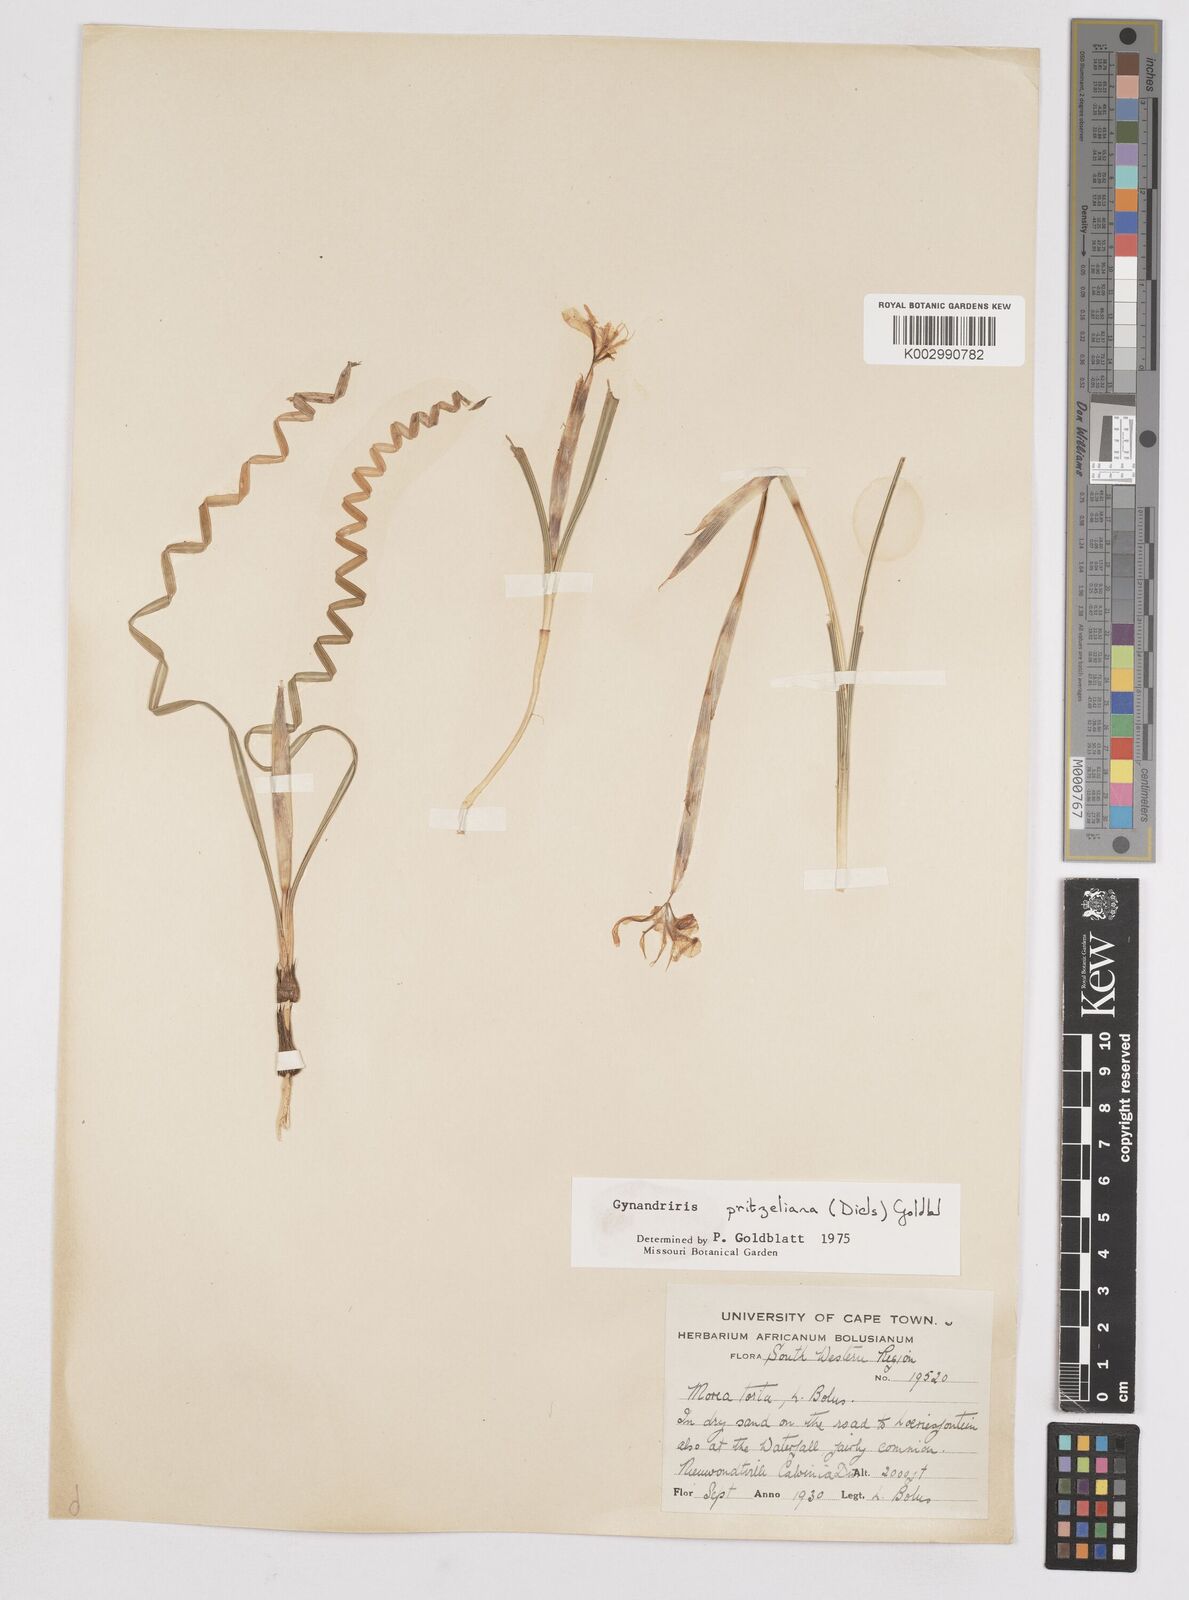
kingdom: Plantae
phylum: Tracheophyta
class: Liliopsida
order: Asparagales
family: Iridaceae
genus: Moraea
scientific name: Moraea pritzeliana
